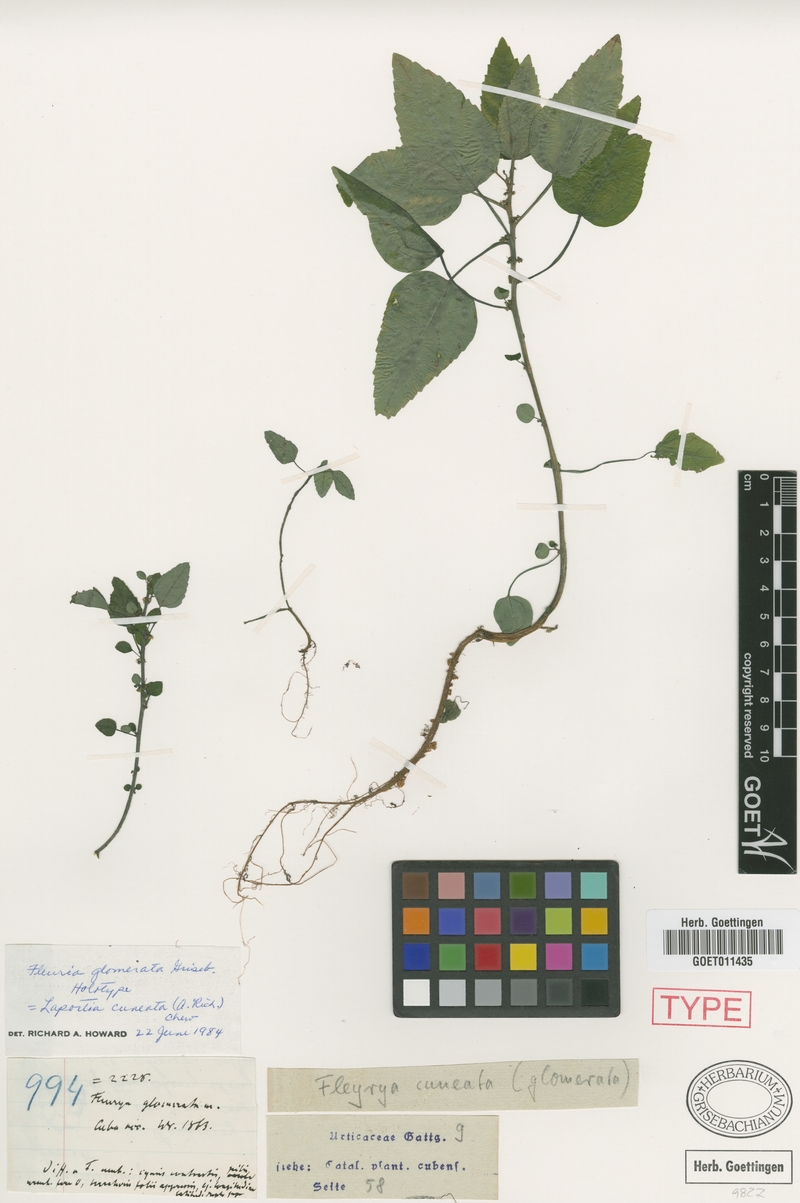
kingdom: Plantae
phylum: Tracheophyta
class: Magnoliopsida
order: Rosales
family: Urticaceae
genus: Laportea
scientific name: Laportea cuneata
